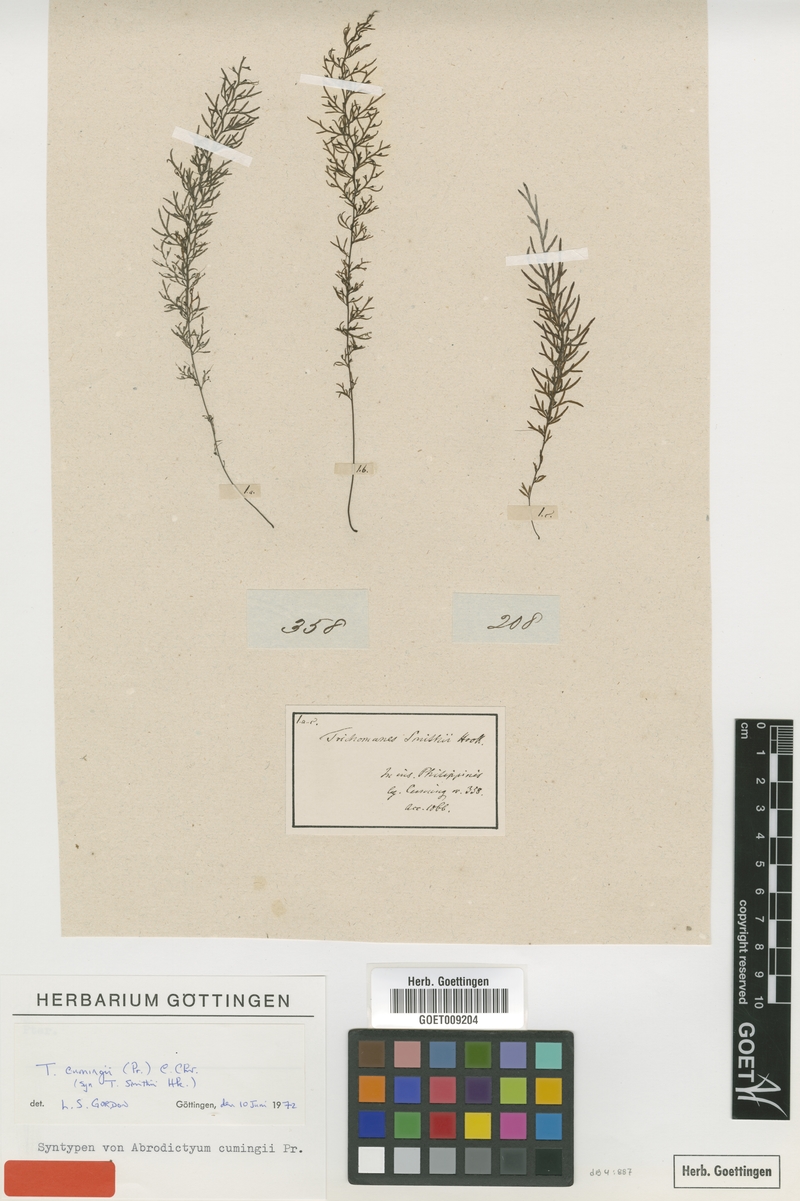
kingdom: Plantae
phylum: Tracheophyta
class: Polypodiopsida
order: Hymenophyllales
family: Hymenophyllaceae
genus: Abrodictyum
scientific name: Abrodictyum cumingii
